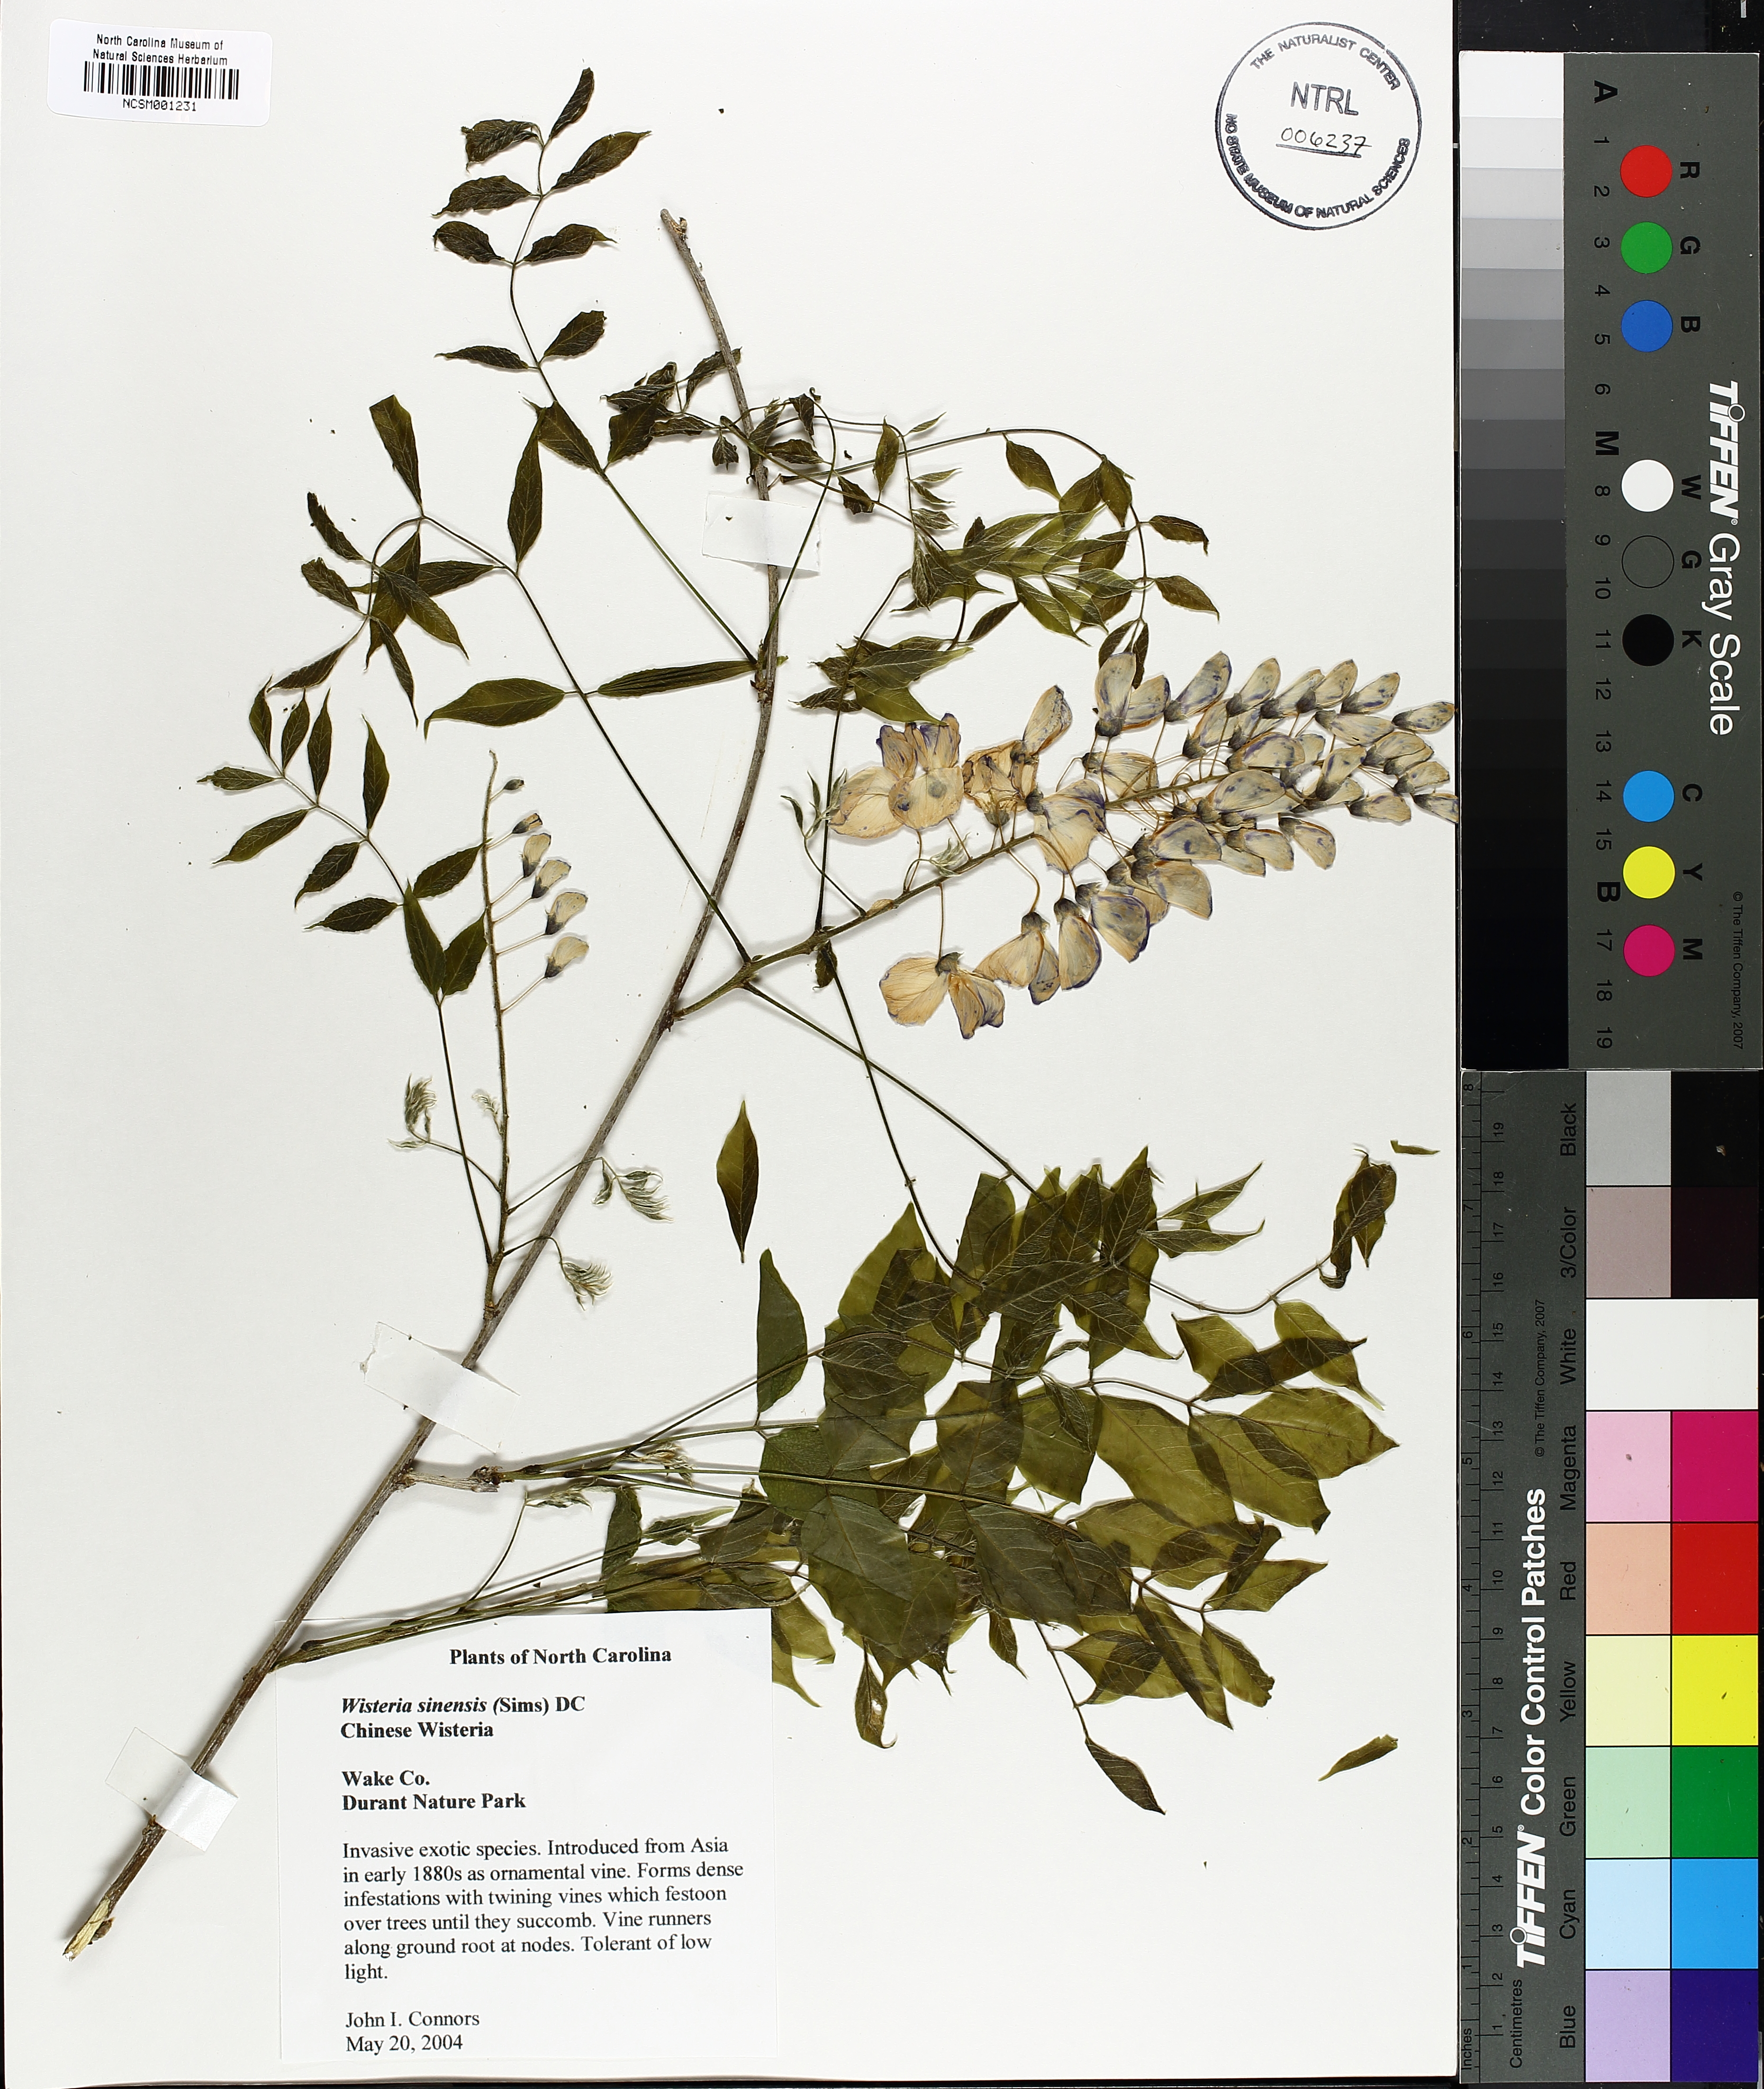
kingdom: Plantae
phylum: Tracheophyta
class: Magnoliopsida
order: Fabales
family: Fabaceae
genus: Wisteria
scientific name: Wisteria sinensis
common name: Chinese wisteria
